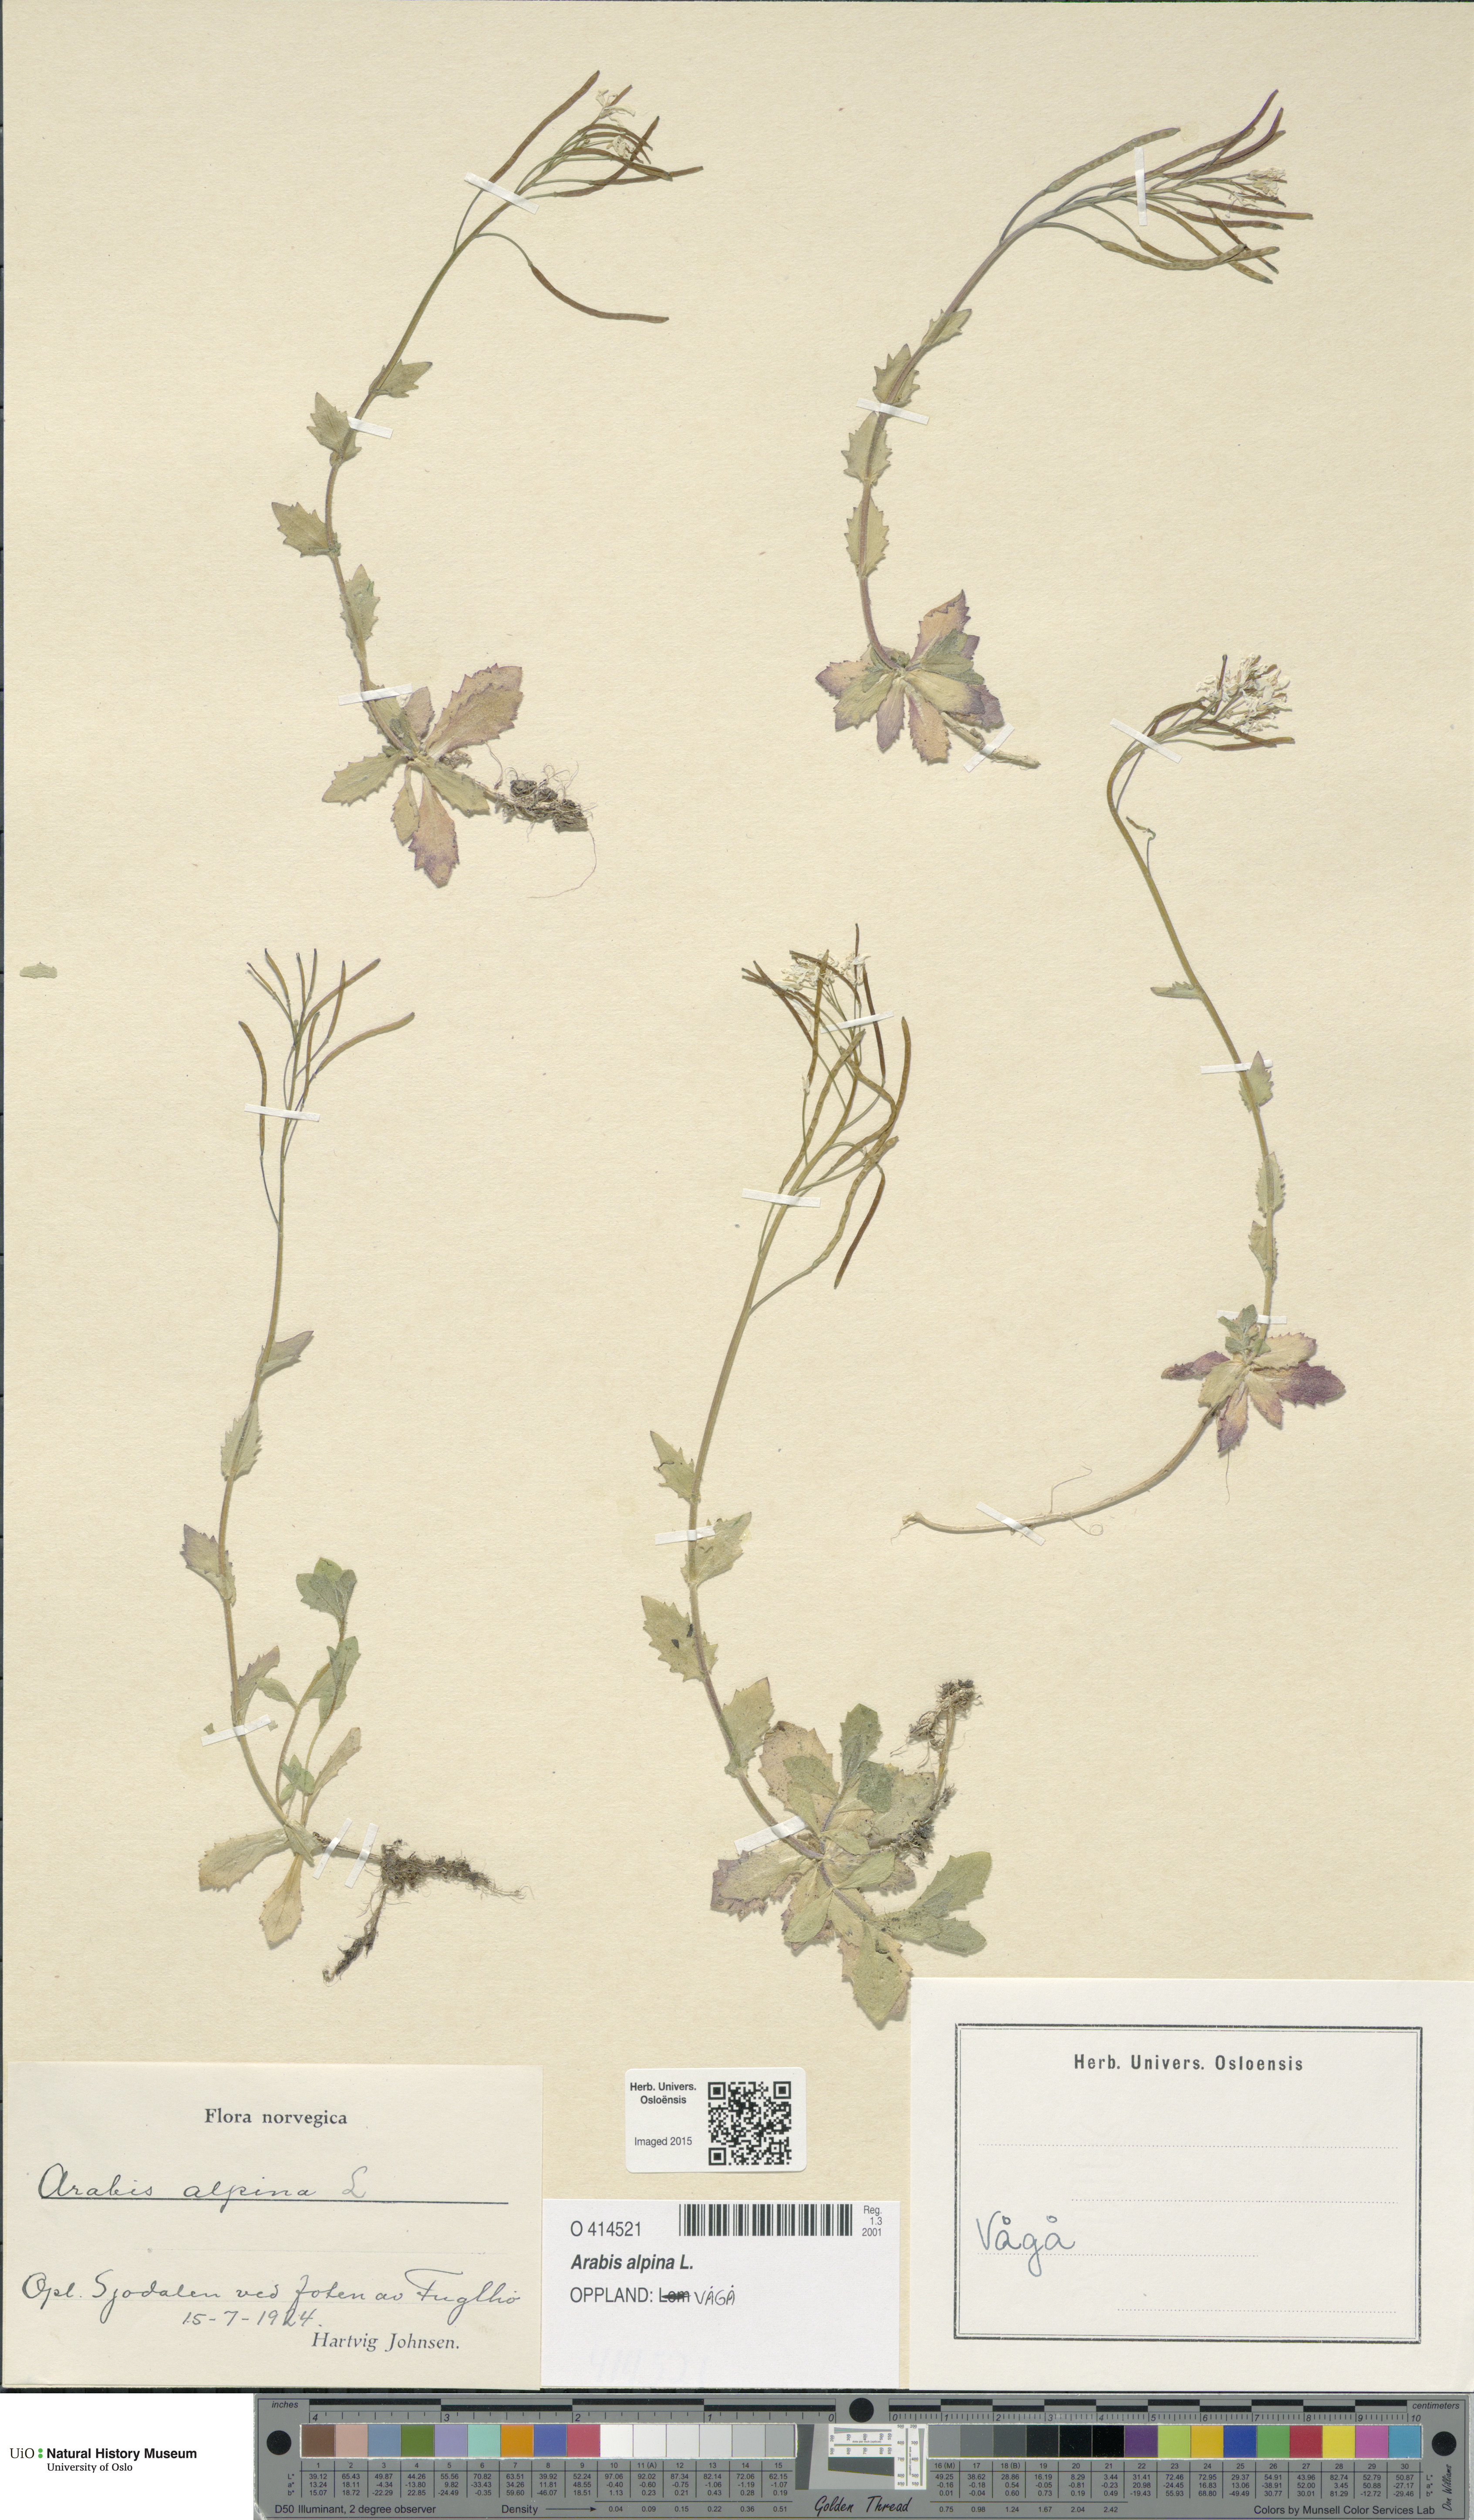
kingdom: Plantae
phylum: Tracheophyta
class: Magnoliopsida
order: Brassicales
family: Brassicaceae
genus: Arabis
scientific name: Arabis alpina
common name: Alpine rock-cress
